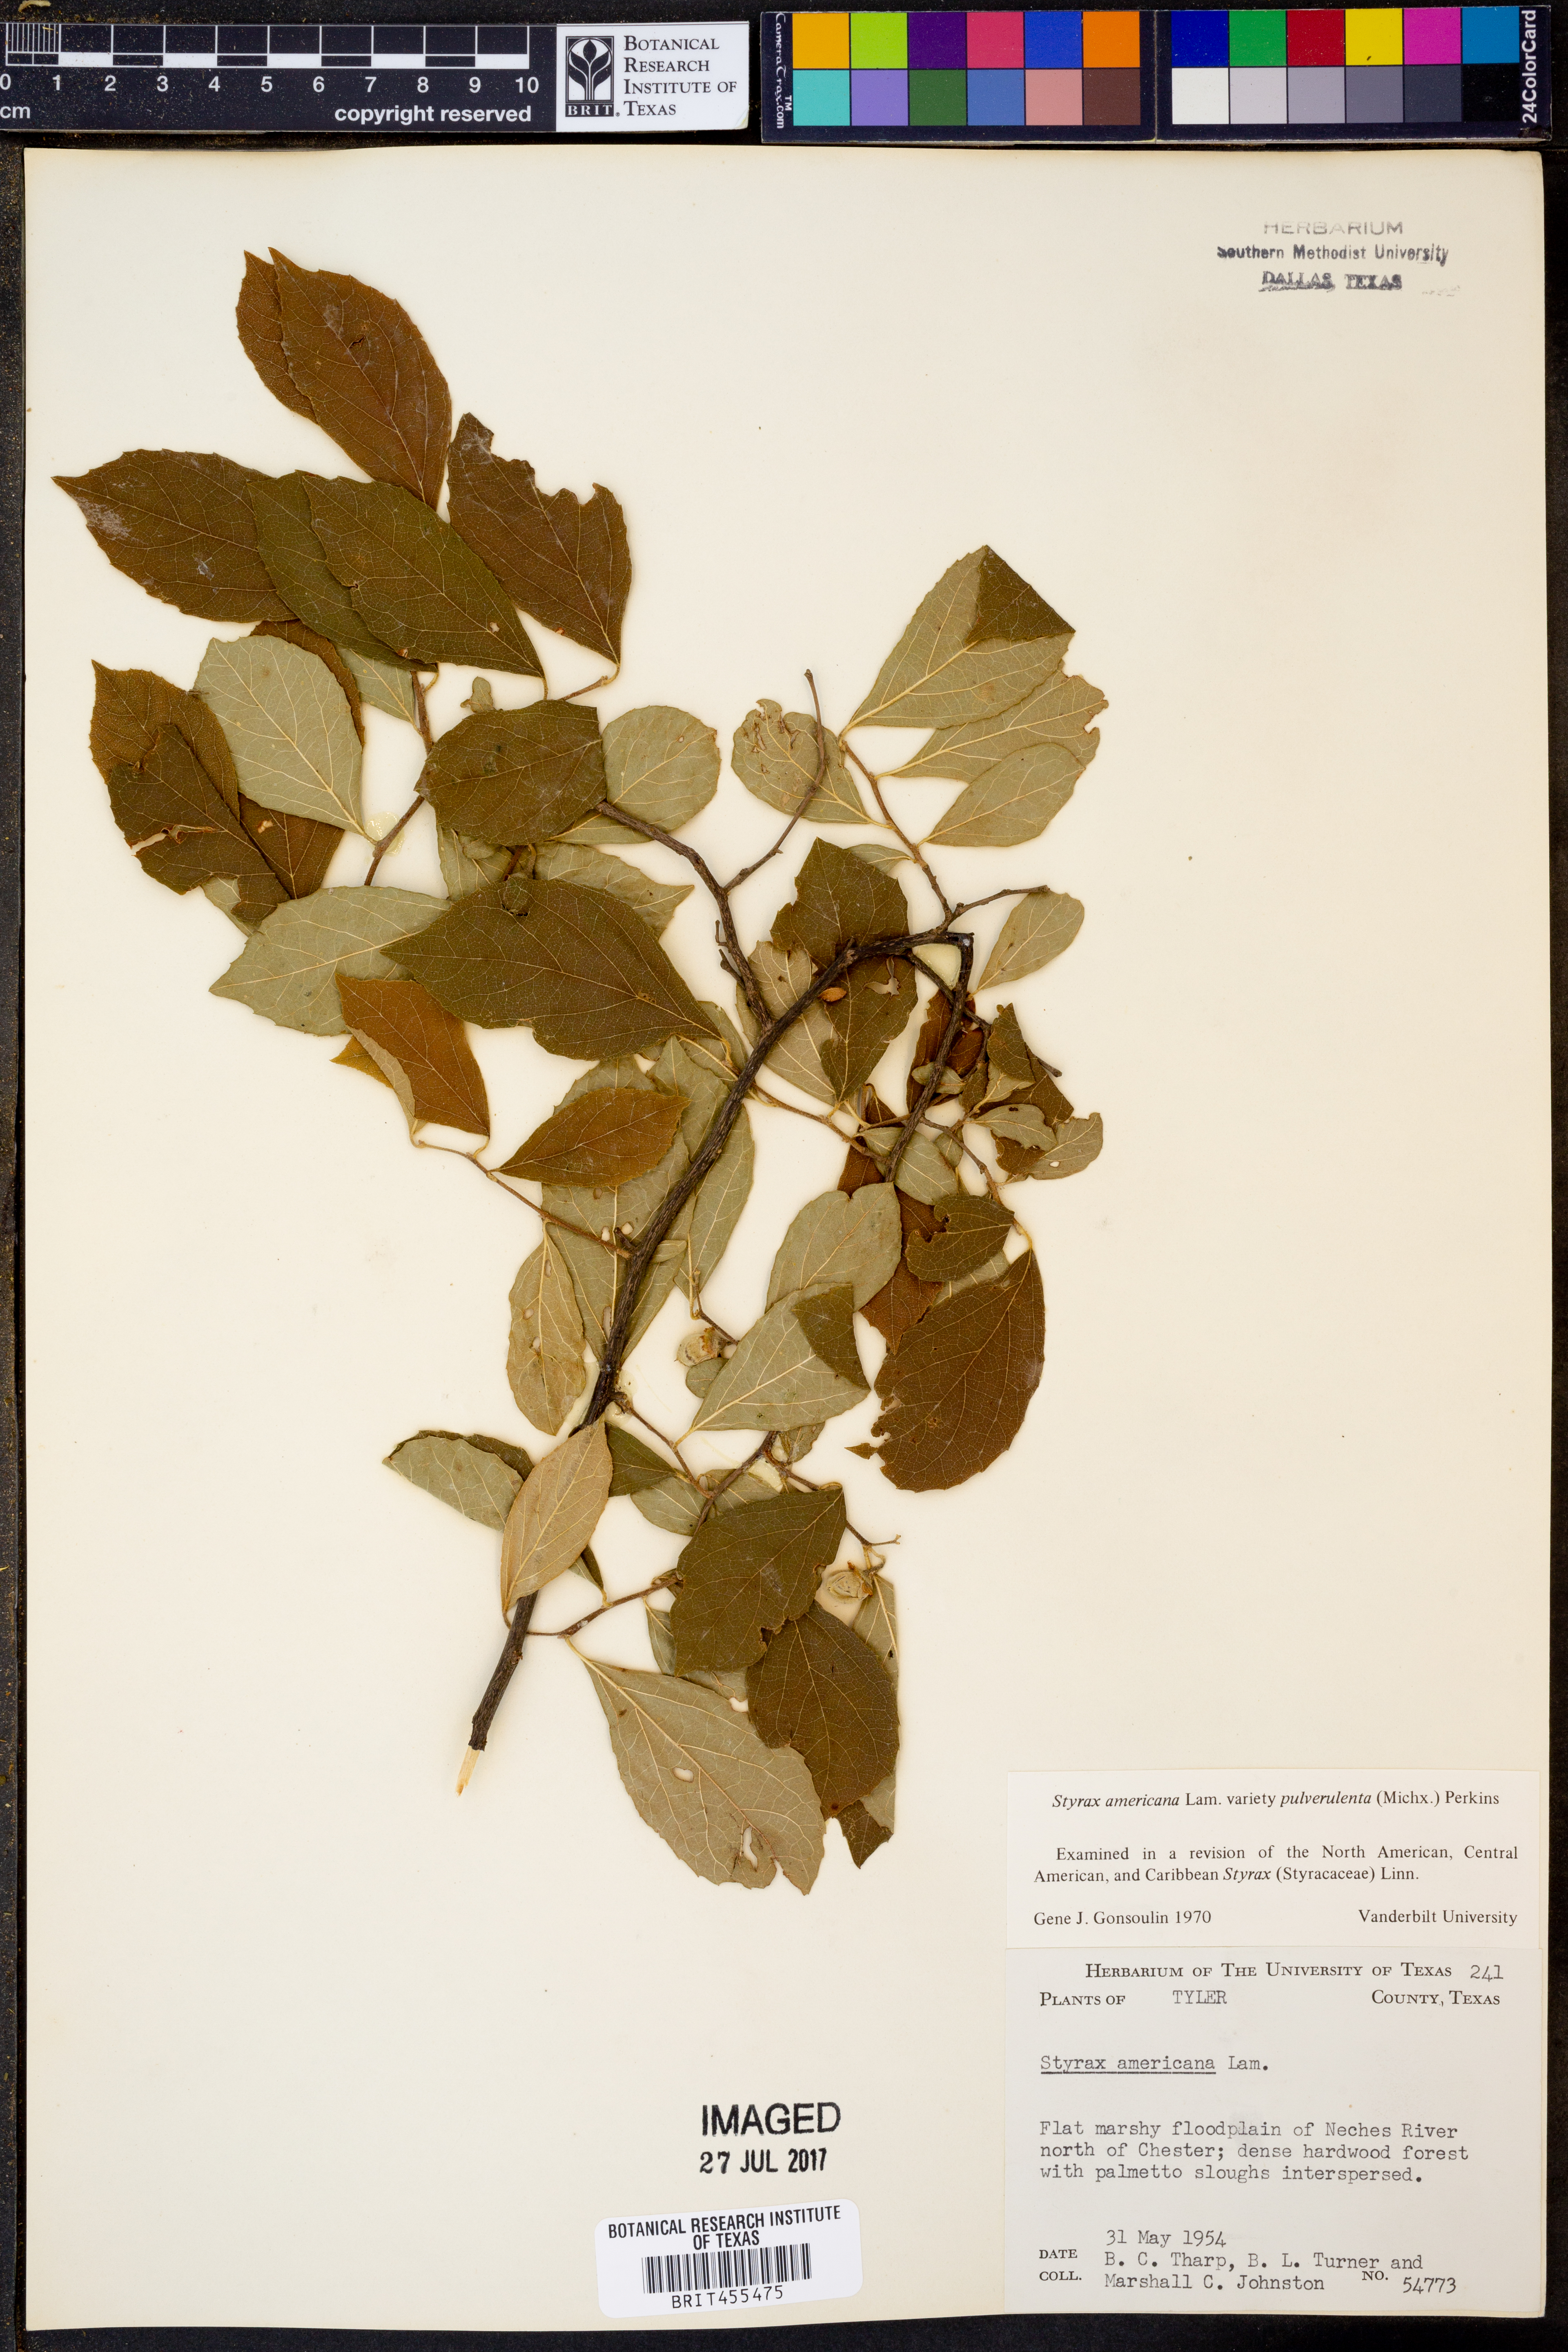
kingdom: Plantae
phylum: Tracheophyta
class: Magnoliopsida
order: Ericales
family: Styracaceae
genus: Styrax
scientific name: Styrax americanus
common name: American snowbell
